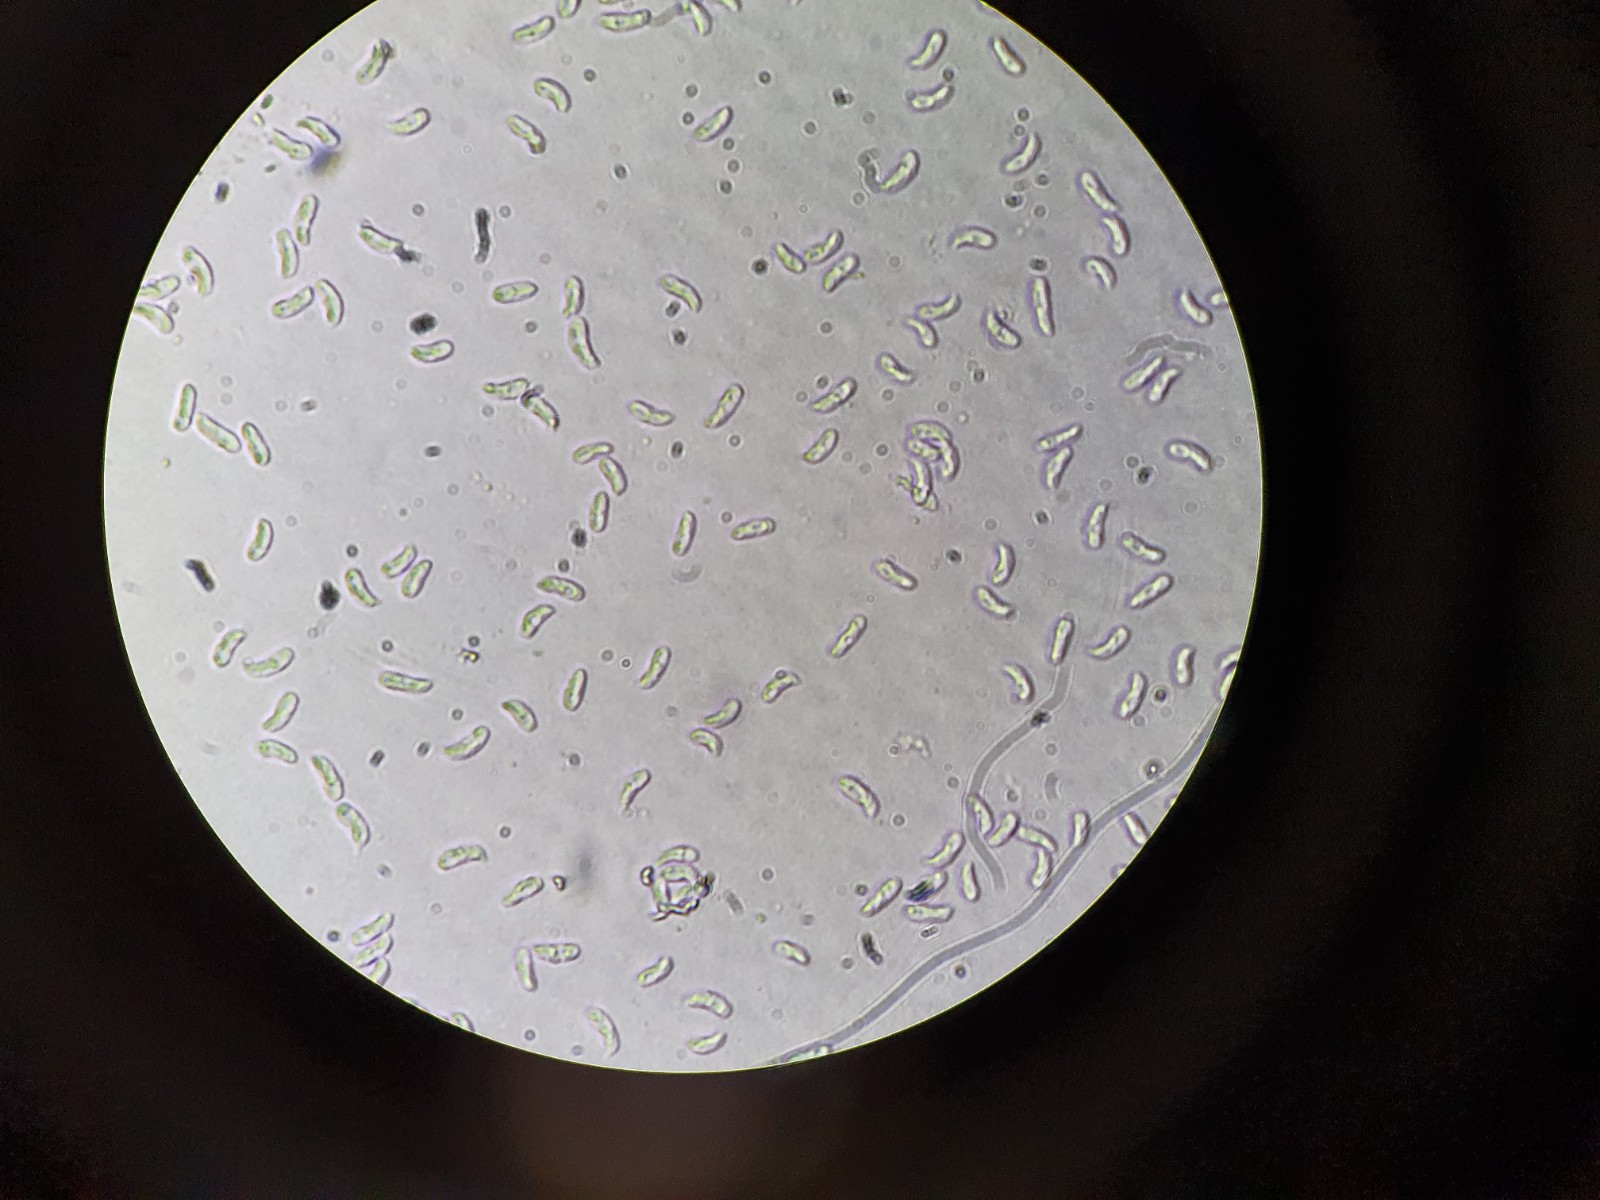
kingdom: Fungi
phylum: Basidiomycota
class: Agaricomycetes
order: Agaricales
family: Porotheleaceae
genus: Hydropodia
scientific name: Hydropodia subalpina
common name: vår-fnugfod
